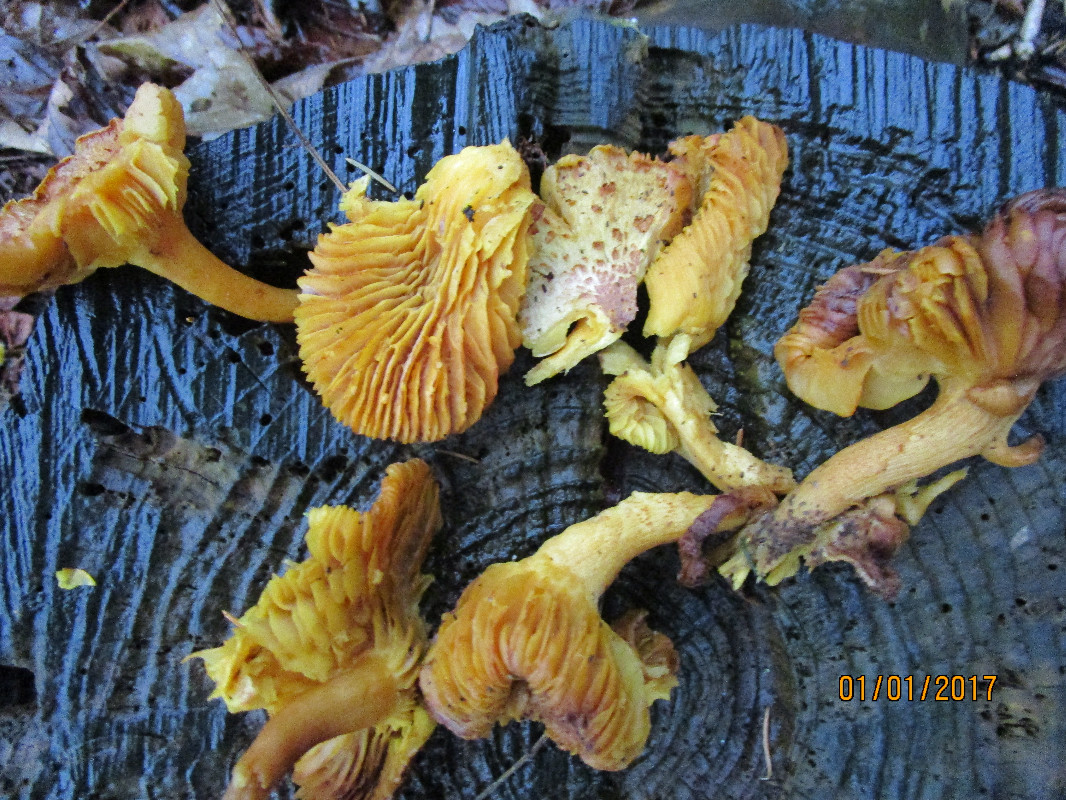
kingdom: Fungi
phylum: Basidiomycota
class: Agaricomycetes
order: Agaricales
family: Tricholomataceae
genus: Tricholomopsis
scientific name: Tricholomopsis rutilans
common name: purpur-væbnerhat
